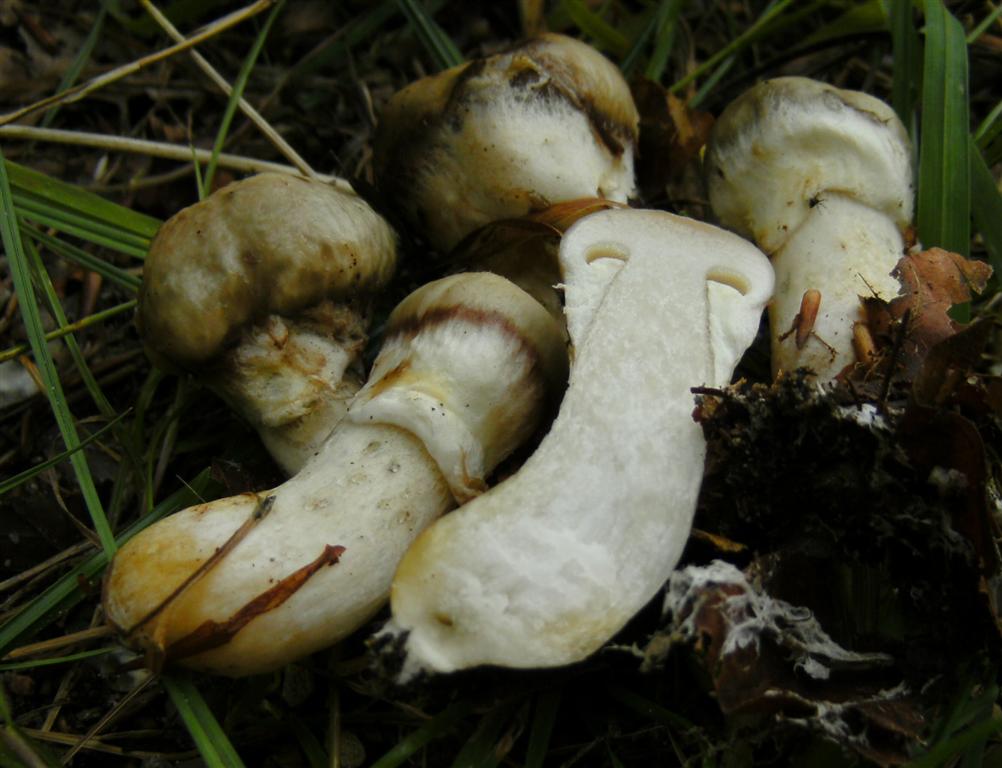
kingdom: Fungi
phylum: Basidiomycota
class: Agaricomycetes
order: Boletales
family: Suillaceae
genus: Suillus
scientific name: Suillus viscidus
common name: olivengrå slimrørhat
